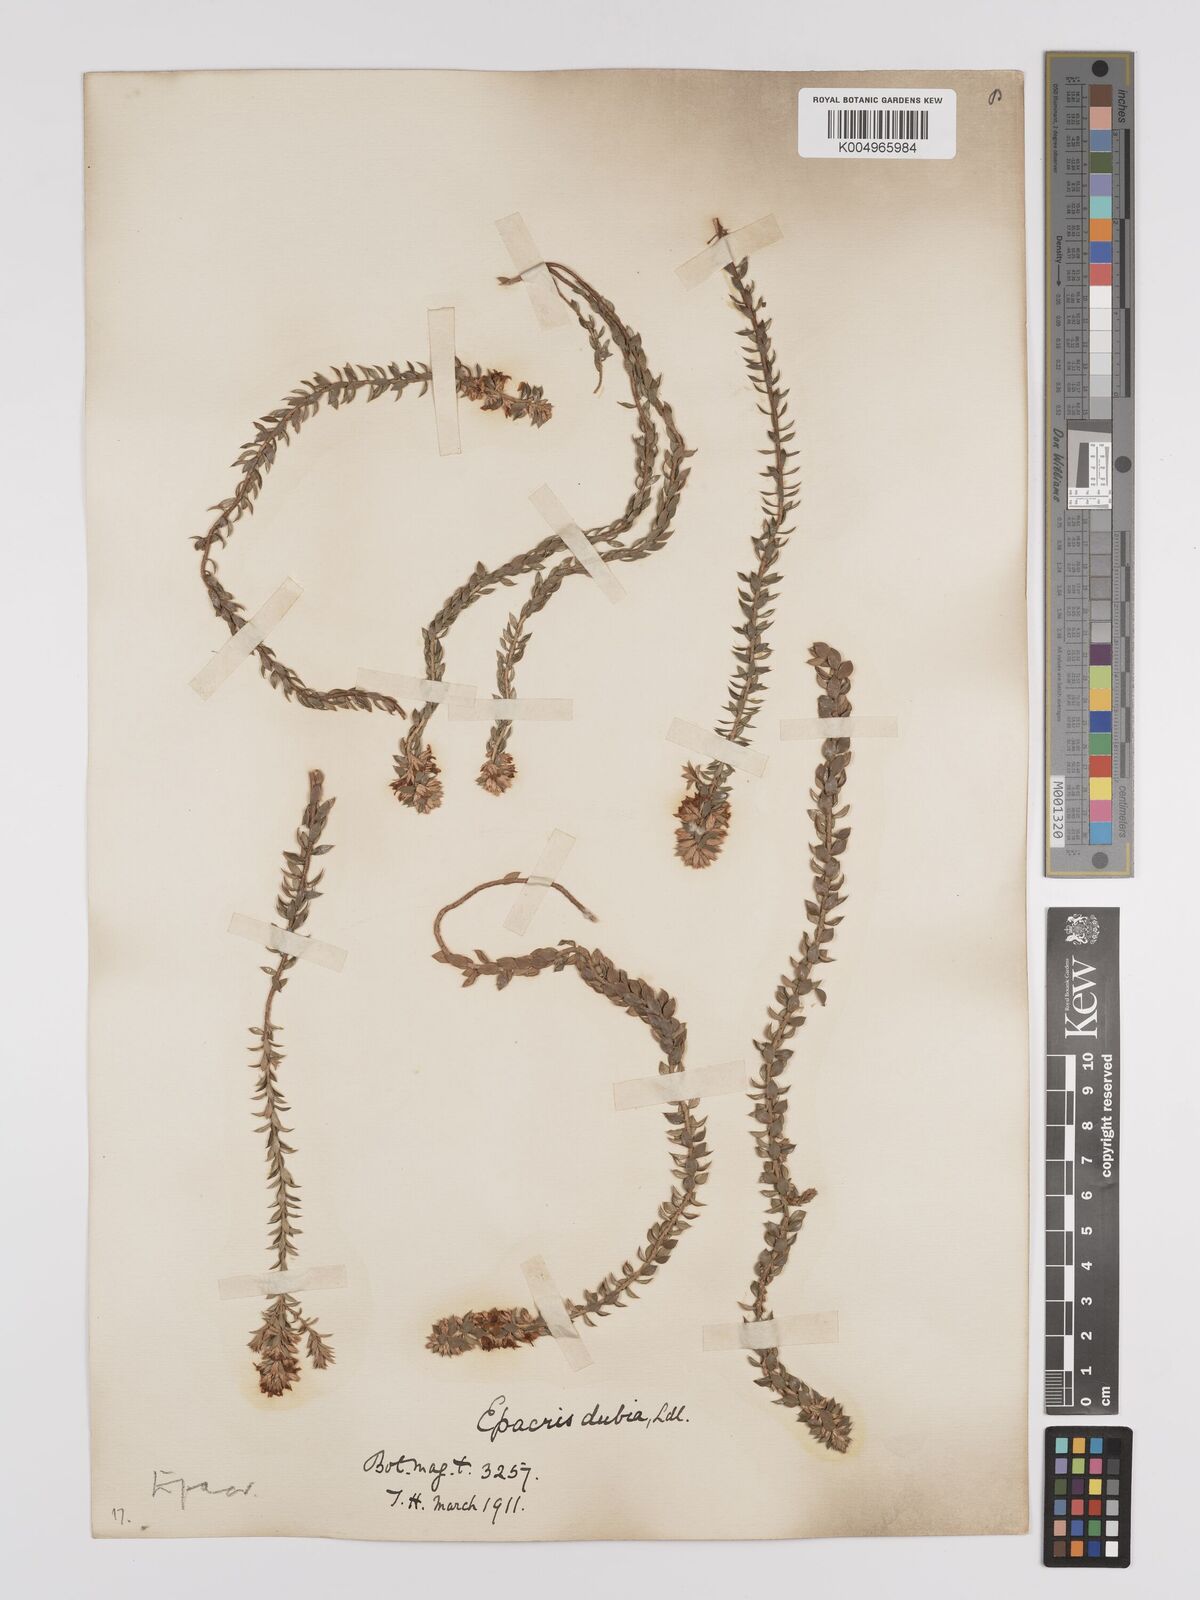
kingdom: Plantae
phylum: Tracheophyta
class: Magnoliopsida
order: Ericales
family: Ericaceae
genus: Epacris
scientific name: Epacris heteronema
